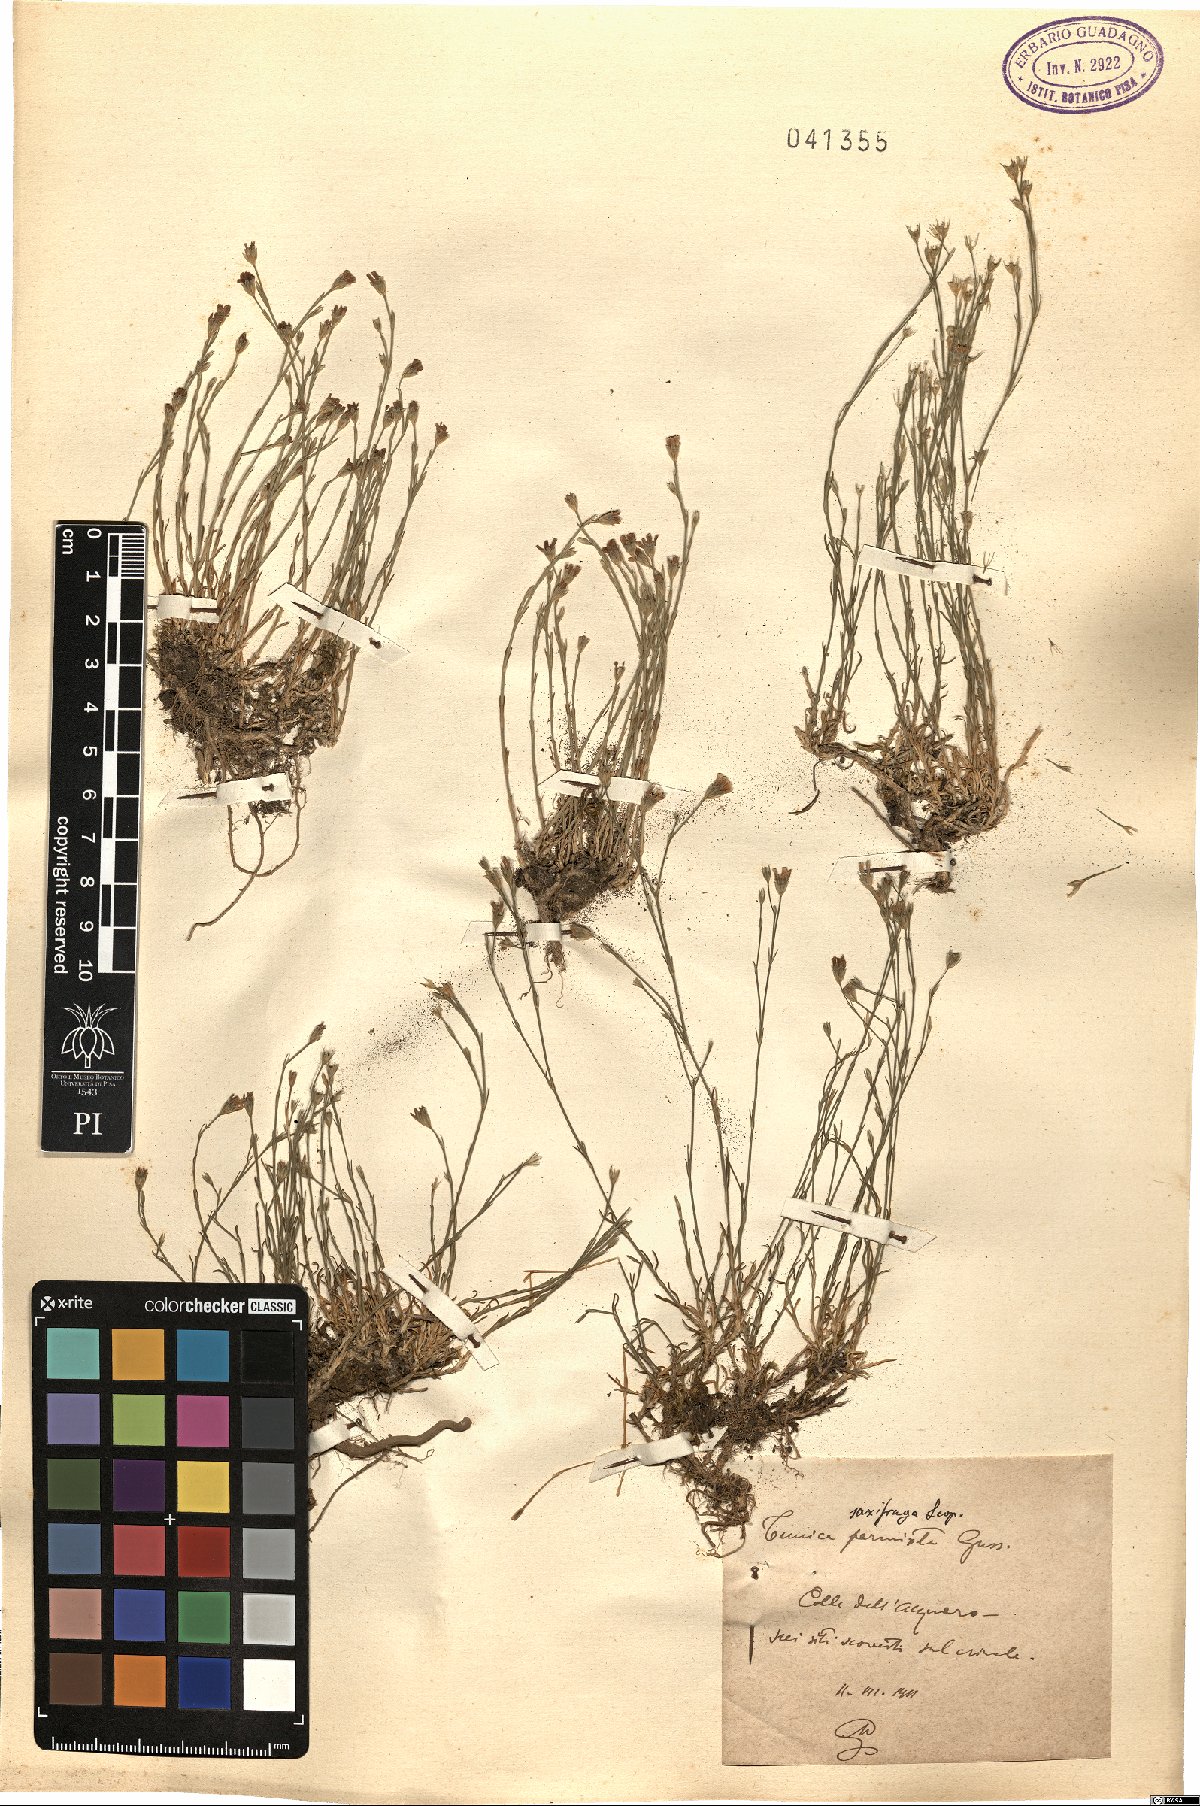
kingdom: Plantae
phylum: Tracheophyta
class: Magnoliopsida
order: Caryophyllales
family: Caryophyllaceae
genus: Petrorhagia
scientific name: Petrorhagia saxifraga
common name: Tunicflower
